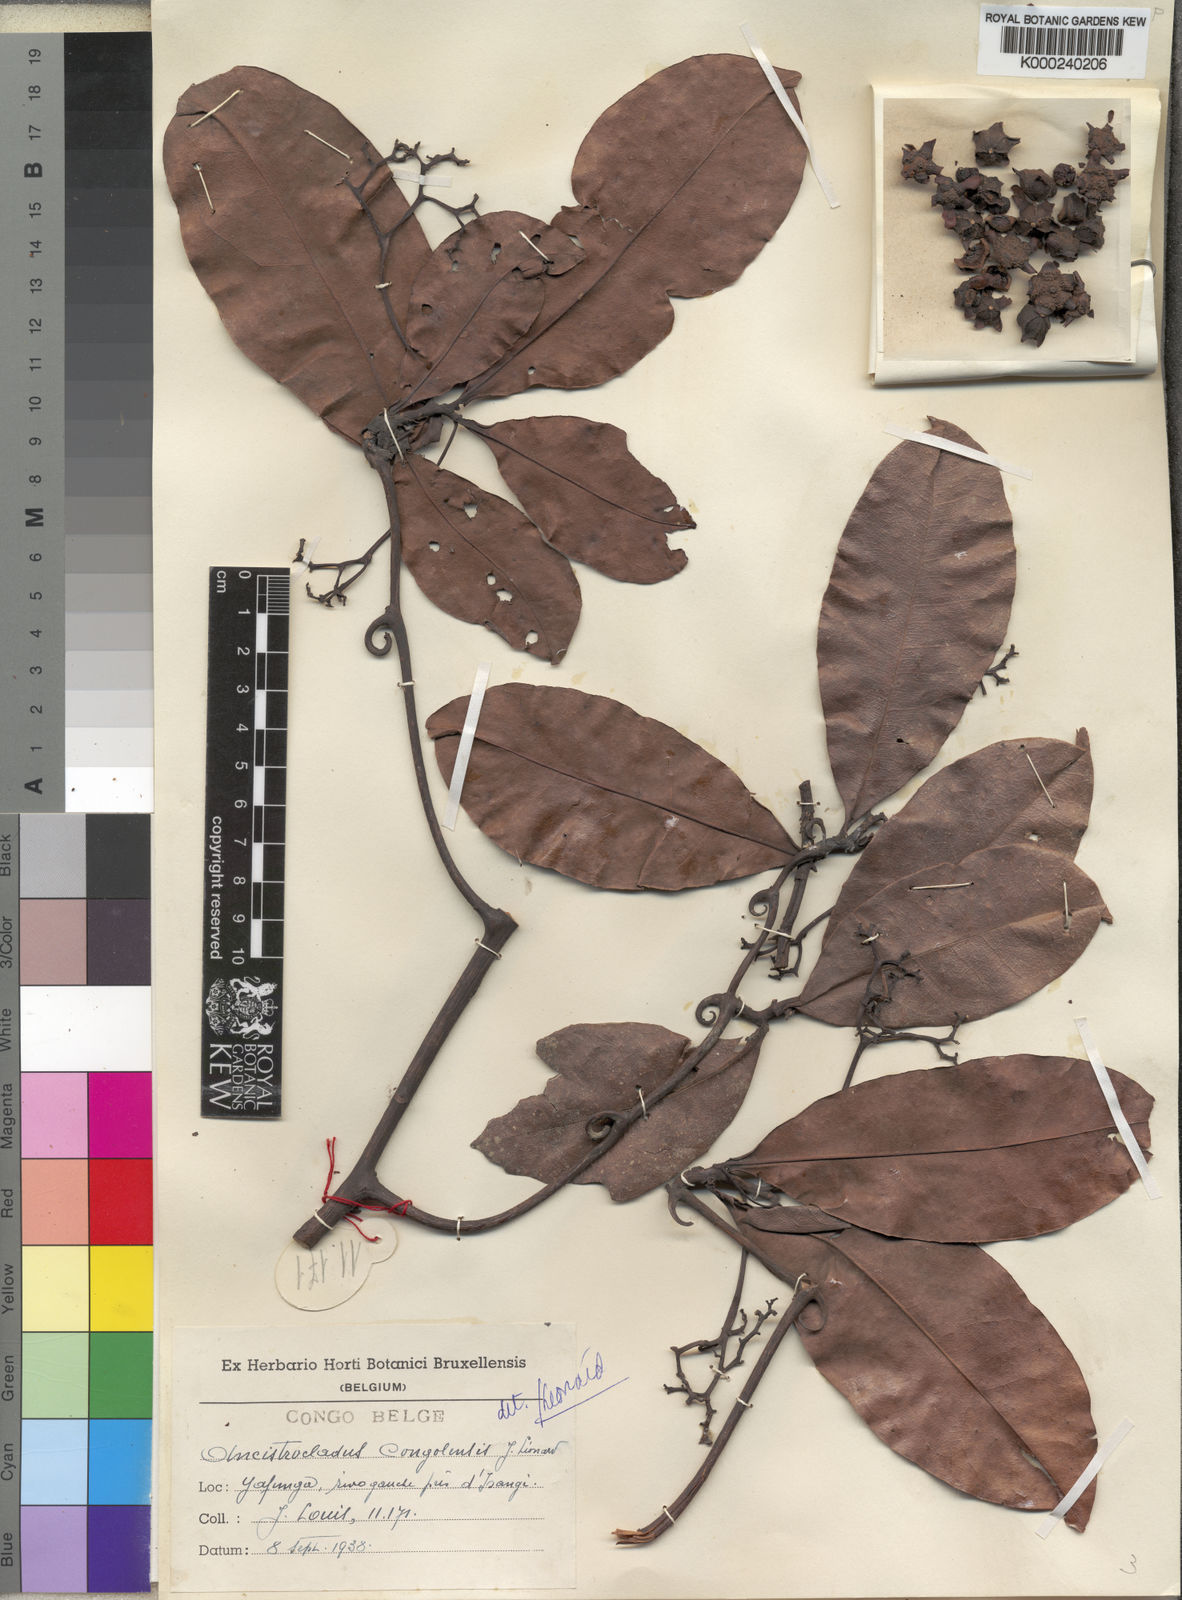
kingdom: Plantae
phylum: Tracheophyta
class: Magnoliopsida
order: Caryophyllales
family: Ancistrocladaceae
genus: Ancistrocladus
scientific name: Ancistrocladus
